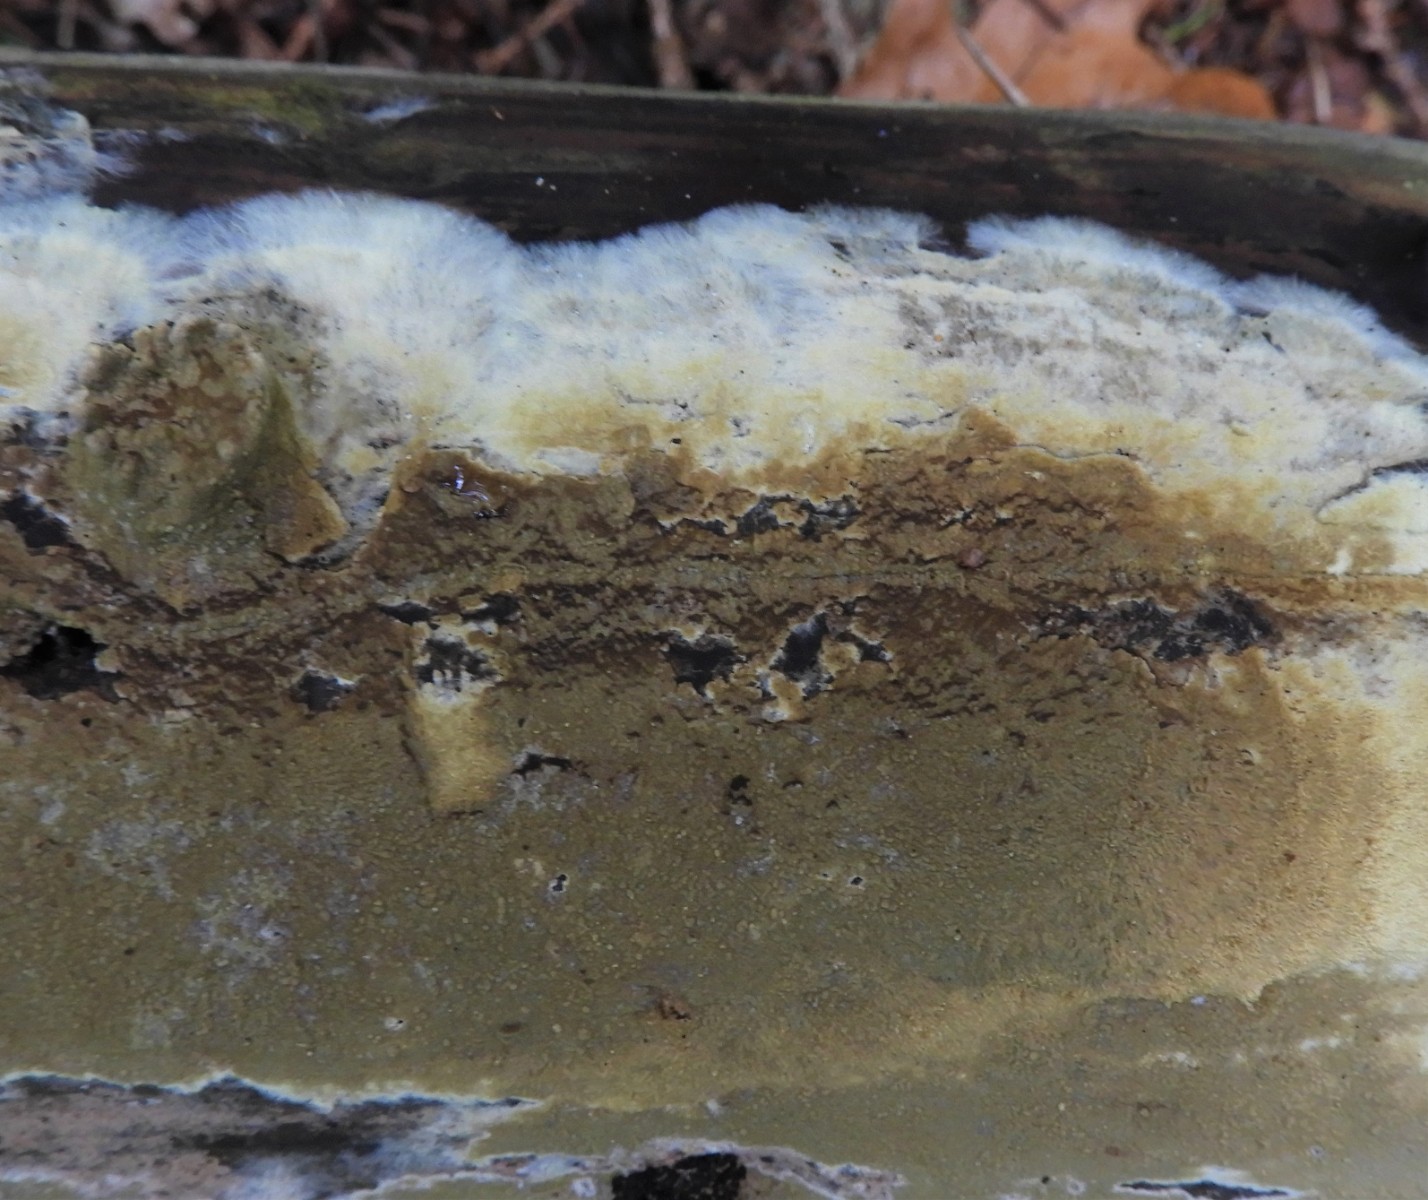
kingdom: Fungi
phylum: Basidiomycota
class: Agaricomycetes
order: Boletales
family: Coniophoraceae
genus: Coniophora
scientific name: Coniophora puteana
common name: gul tømmersvamp
